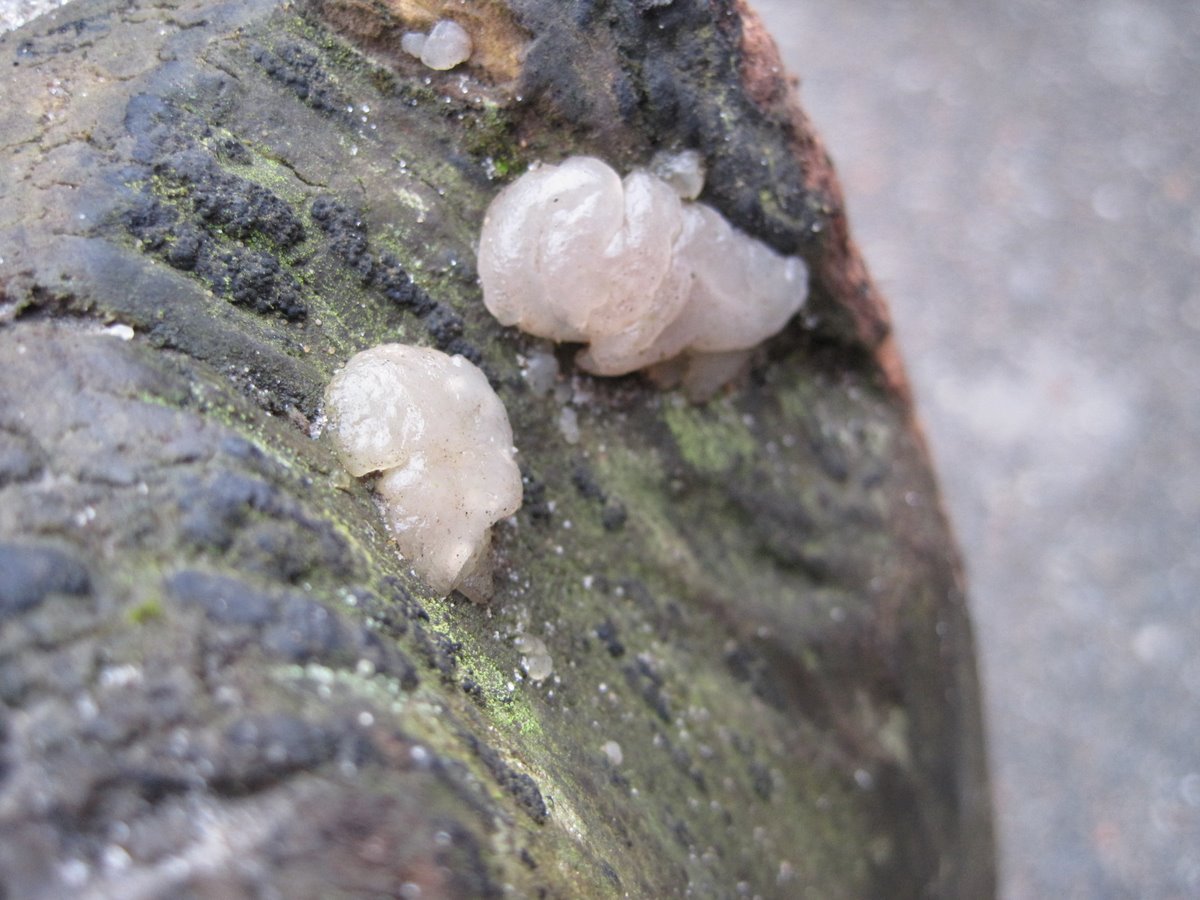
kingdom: Fungi
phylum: Basidiomycota
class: Agaricomycetes
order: Auriculariales
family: Hyaloriaceae
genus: Myxarium
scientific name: Myxarium nucleatum
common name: klar bævretop
